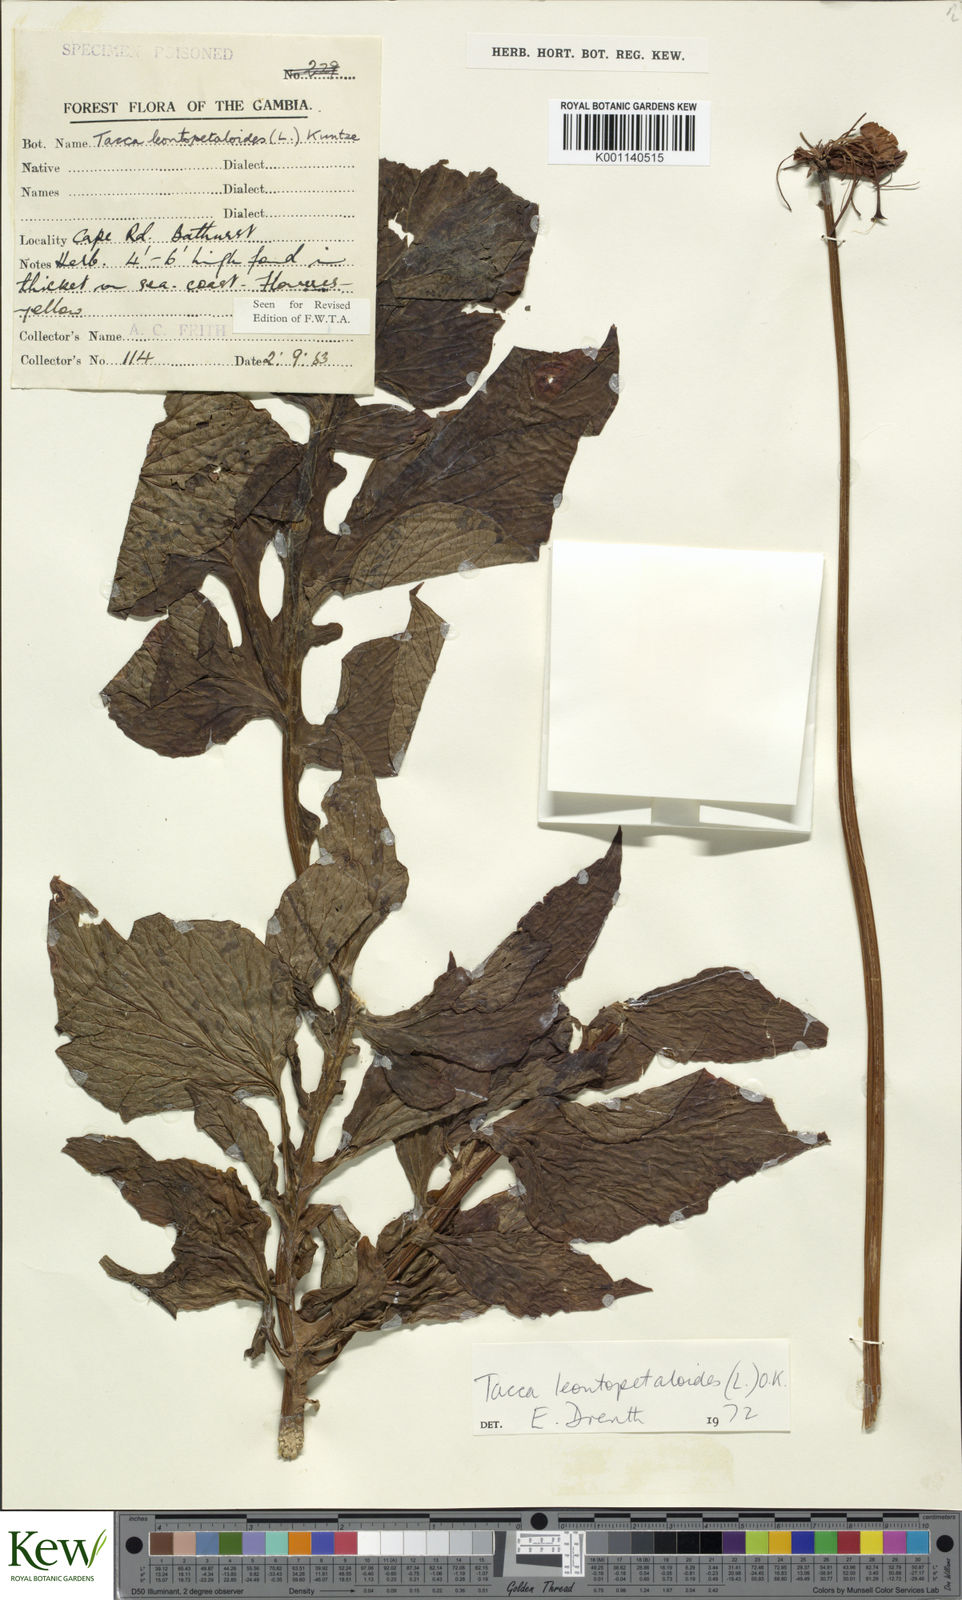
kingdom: Plantae
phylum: Tracheophyta
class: Liliopsida
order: Dioscoreales
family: Dioscoreaceae
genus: Tacca
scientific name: Tacca leontopetaloides
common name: Arrowroot
